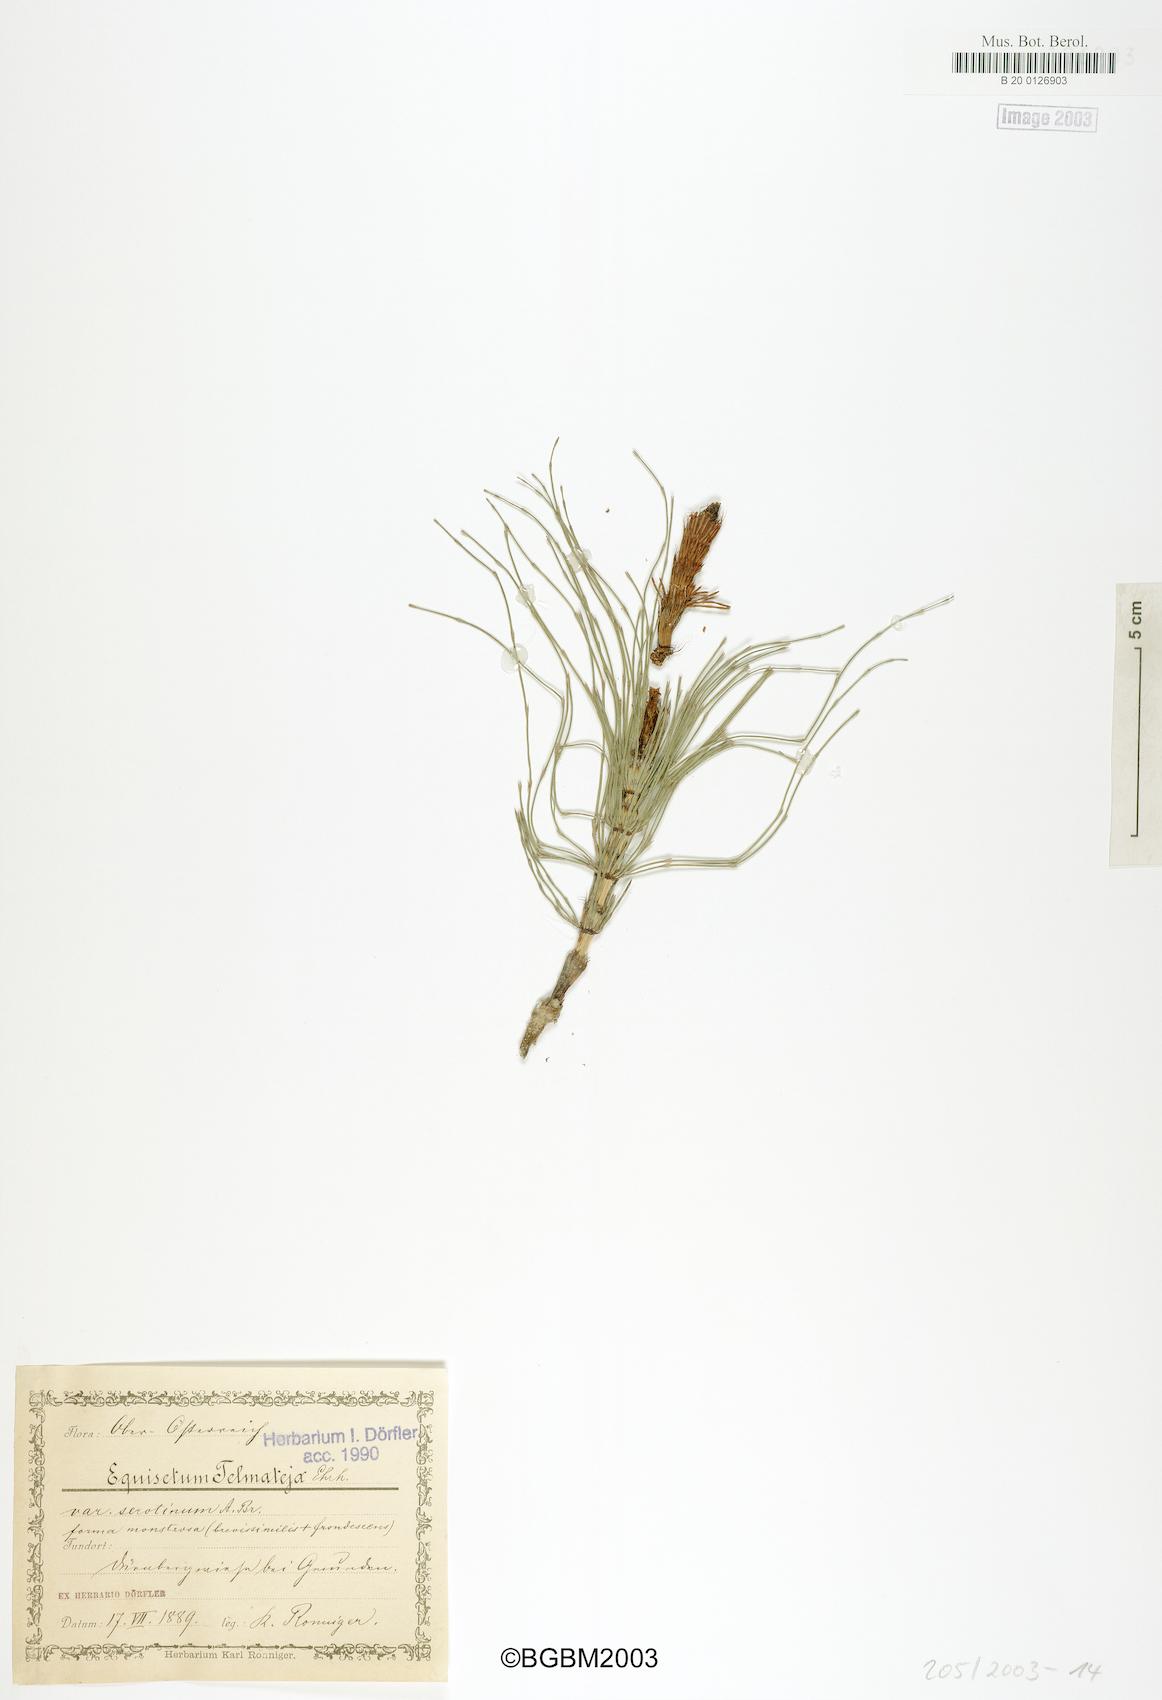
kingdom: Plantae
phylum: Tracheophyta
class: Polypodiopsida
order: Equisetales
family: Equisetaceae
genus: Equisetum
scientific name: Equisetum telmateia
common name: Great horsetail
